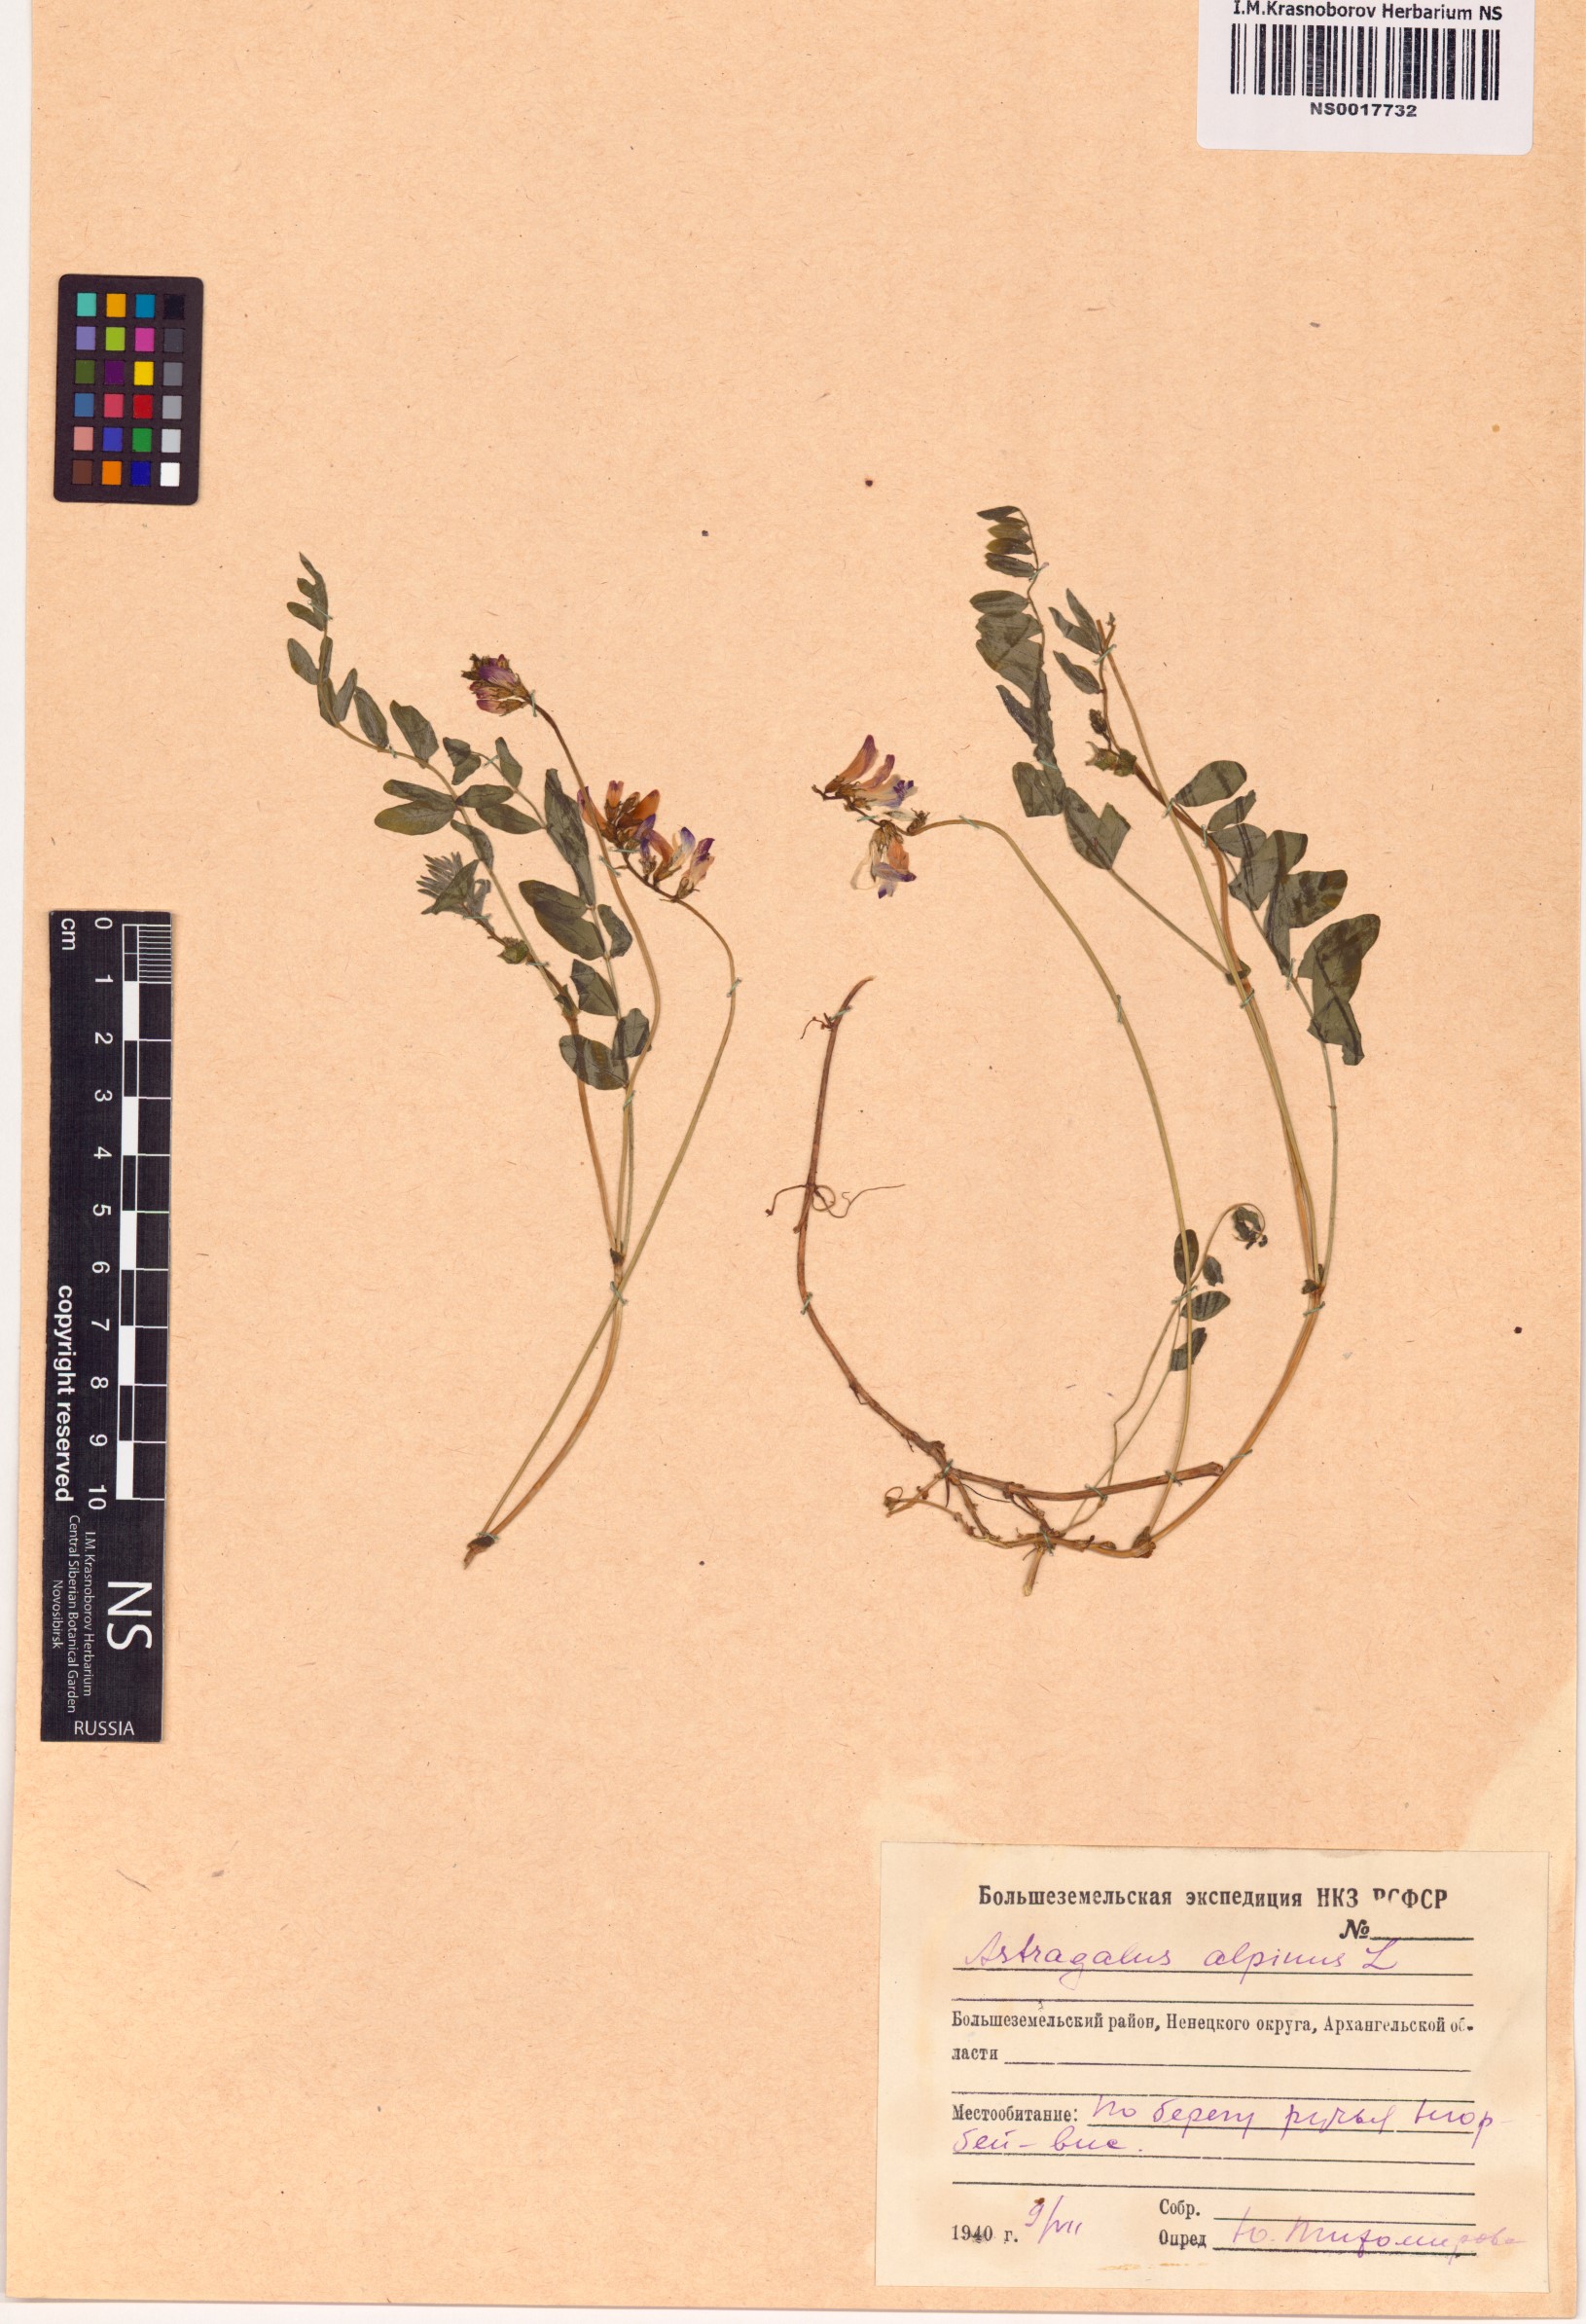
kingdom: Plantae
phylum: Tracheophyta
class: Magnoliopsida
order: Fabales
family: Fabaceae
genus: Astragalus
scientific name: Astragalus alpinus
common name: Alpine milk-vetch
